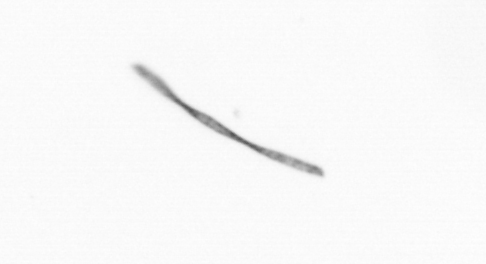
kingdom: Chromista
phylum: Ochrophyta
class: Bacillariophyceae
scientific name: Bacillariophyceae
